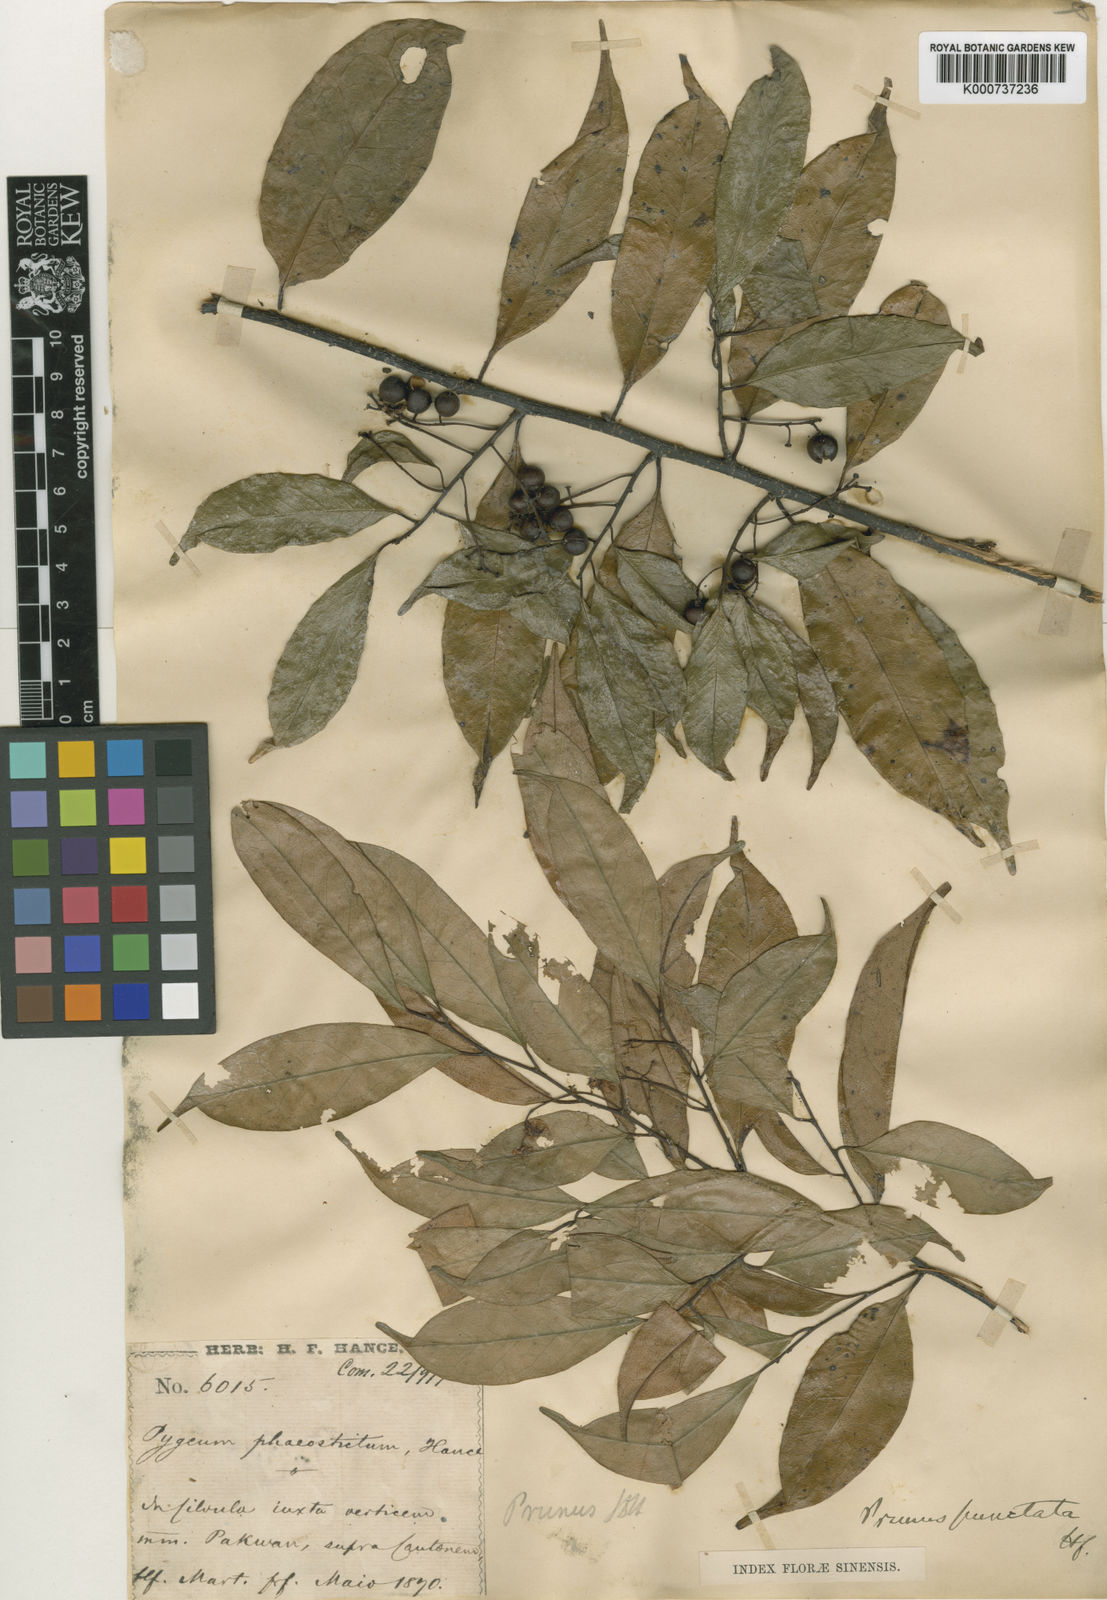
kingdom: Plantae
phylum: Tracheophyta
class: Magnoliopsida
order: Rosales
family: Rosaceae
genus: Prunus
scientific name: Prunus phaeosticta
